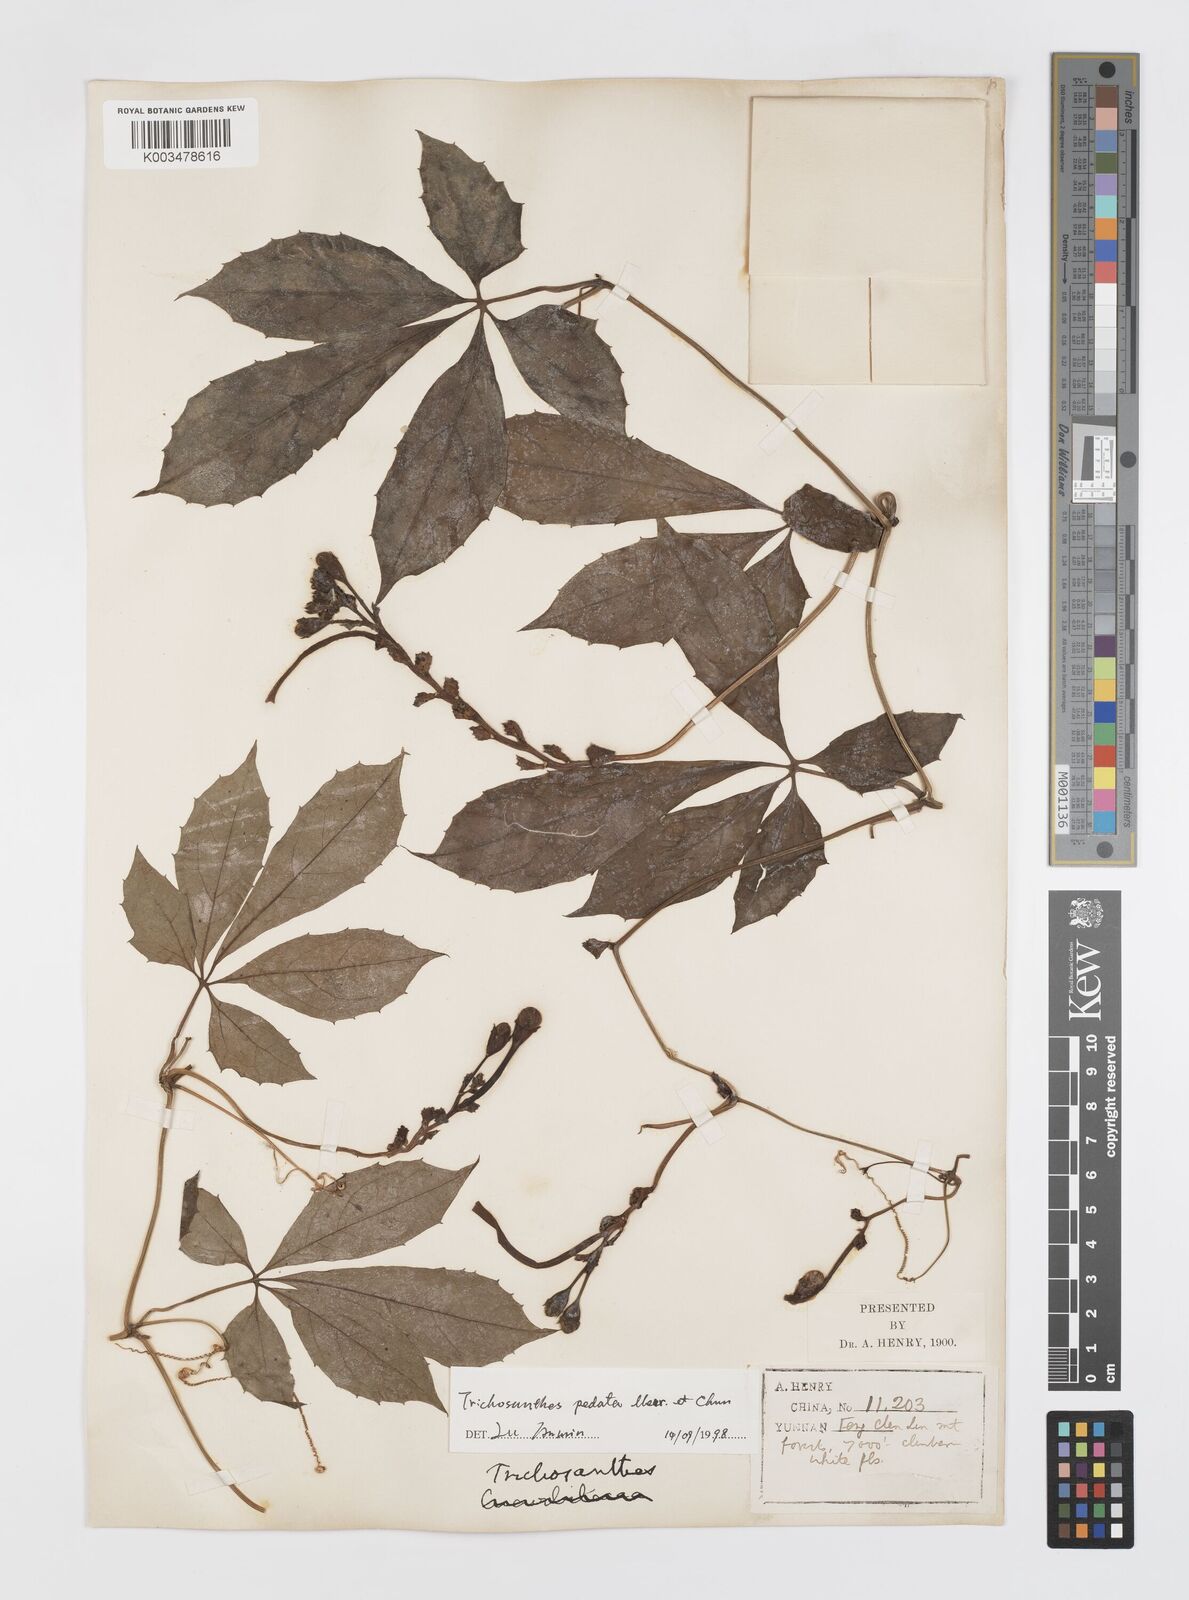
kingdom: Plantae
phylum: Tracheophyta
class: Magnoliopsida
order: Cucurbitales
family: Cucurbitaceae
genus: Trichosanthes
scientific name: Trichosanthes pedata
